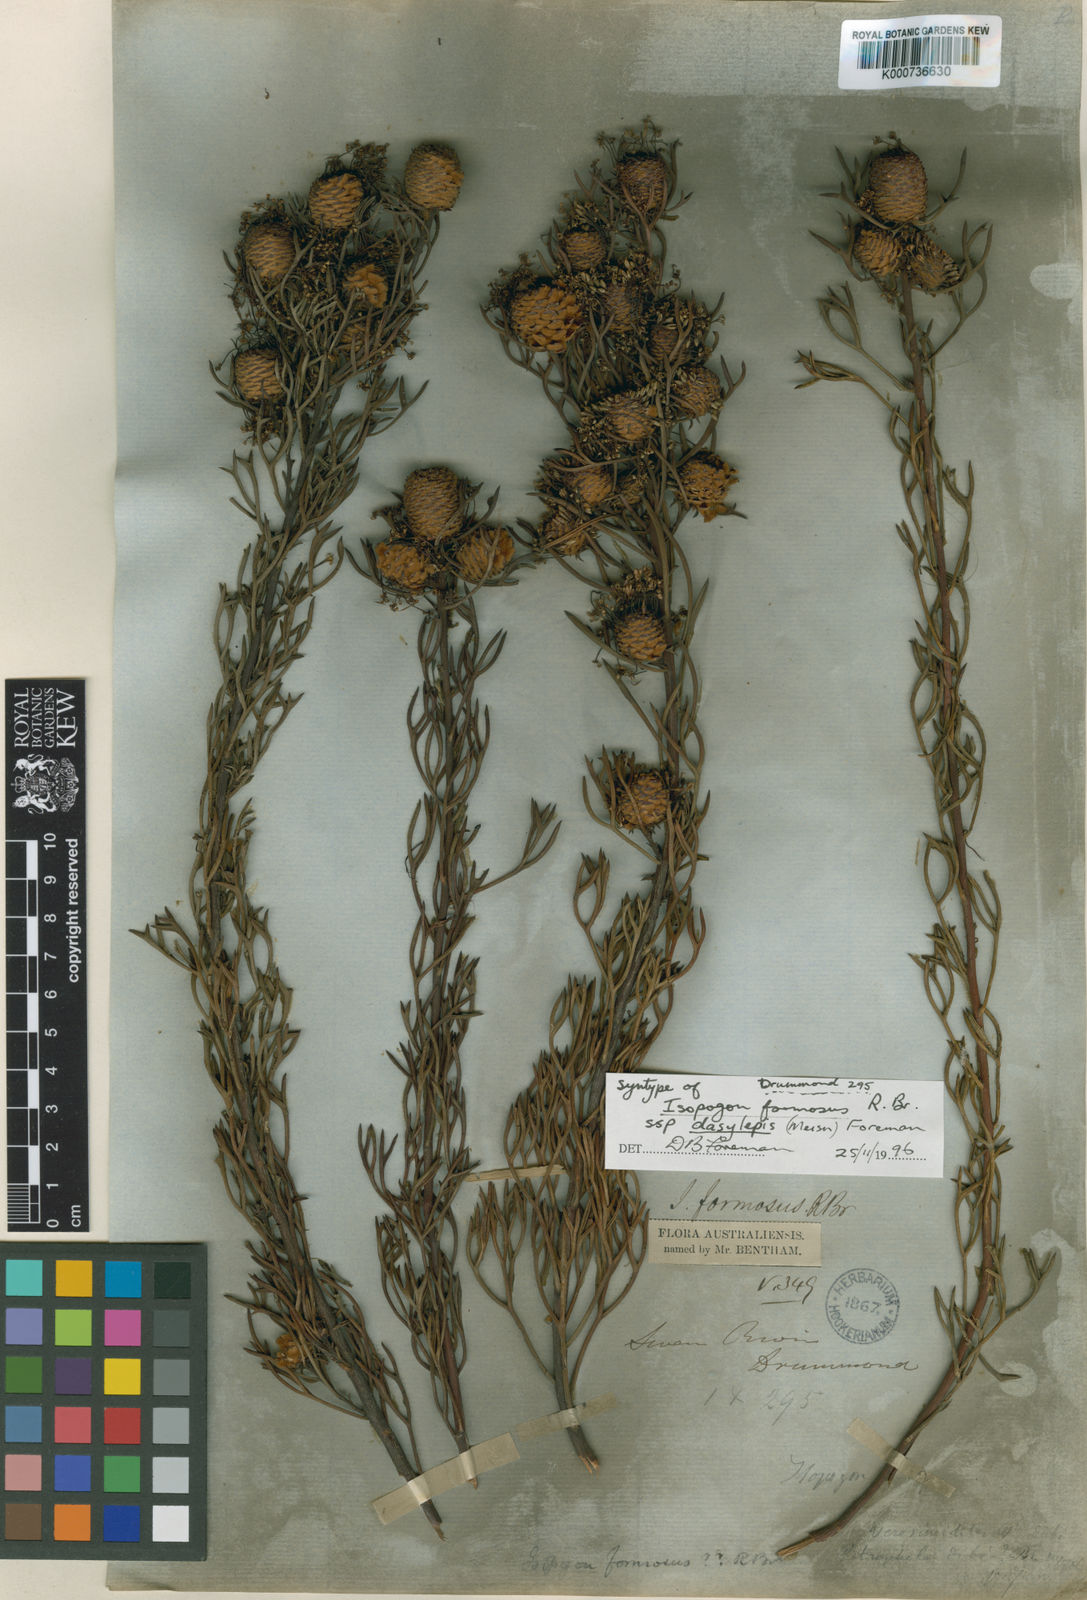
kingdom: Plantae
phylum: Tracheophyta
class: Magnoliopsida
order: Proteales
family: Proteaceae
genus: Isopogon
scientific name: Isopogon formosus
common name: Rose-coneflower
